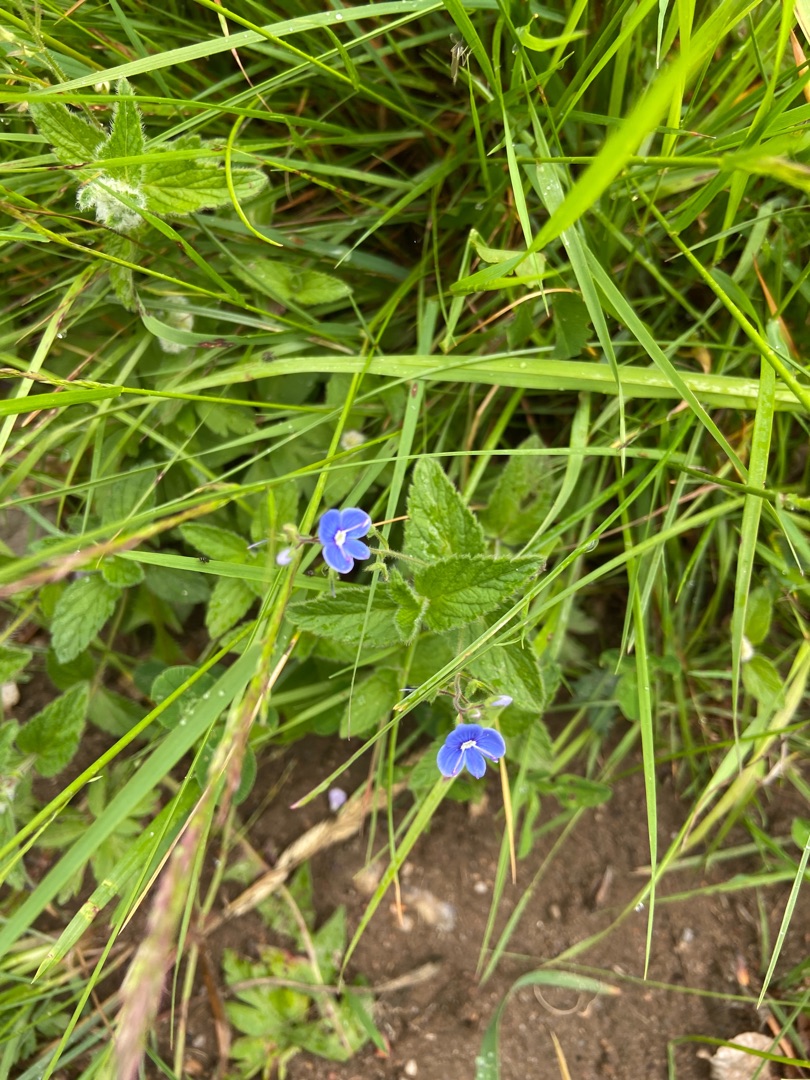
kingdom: Plantae
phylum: Tracheophyta
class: Magnoliopsida
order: Lamiales
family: Plantaginaceae
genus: Veronica
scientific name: Veronica chamaedrys
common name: Tveskægget ærenpris
